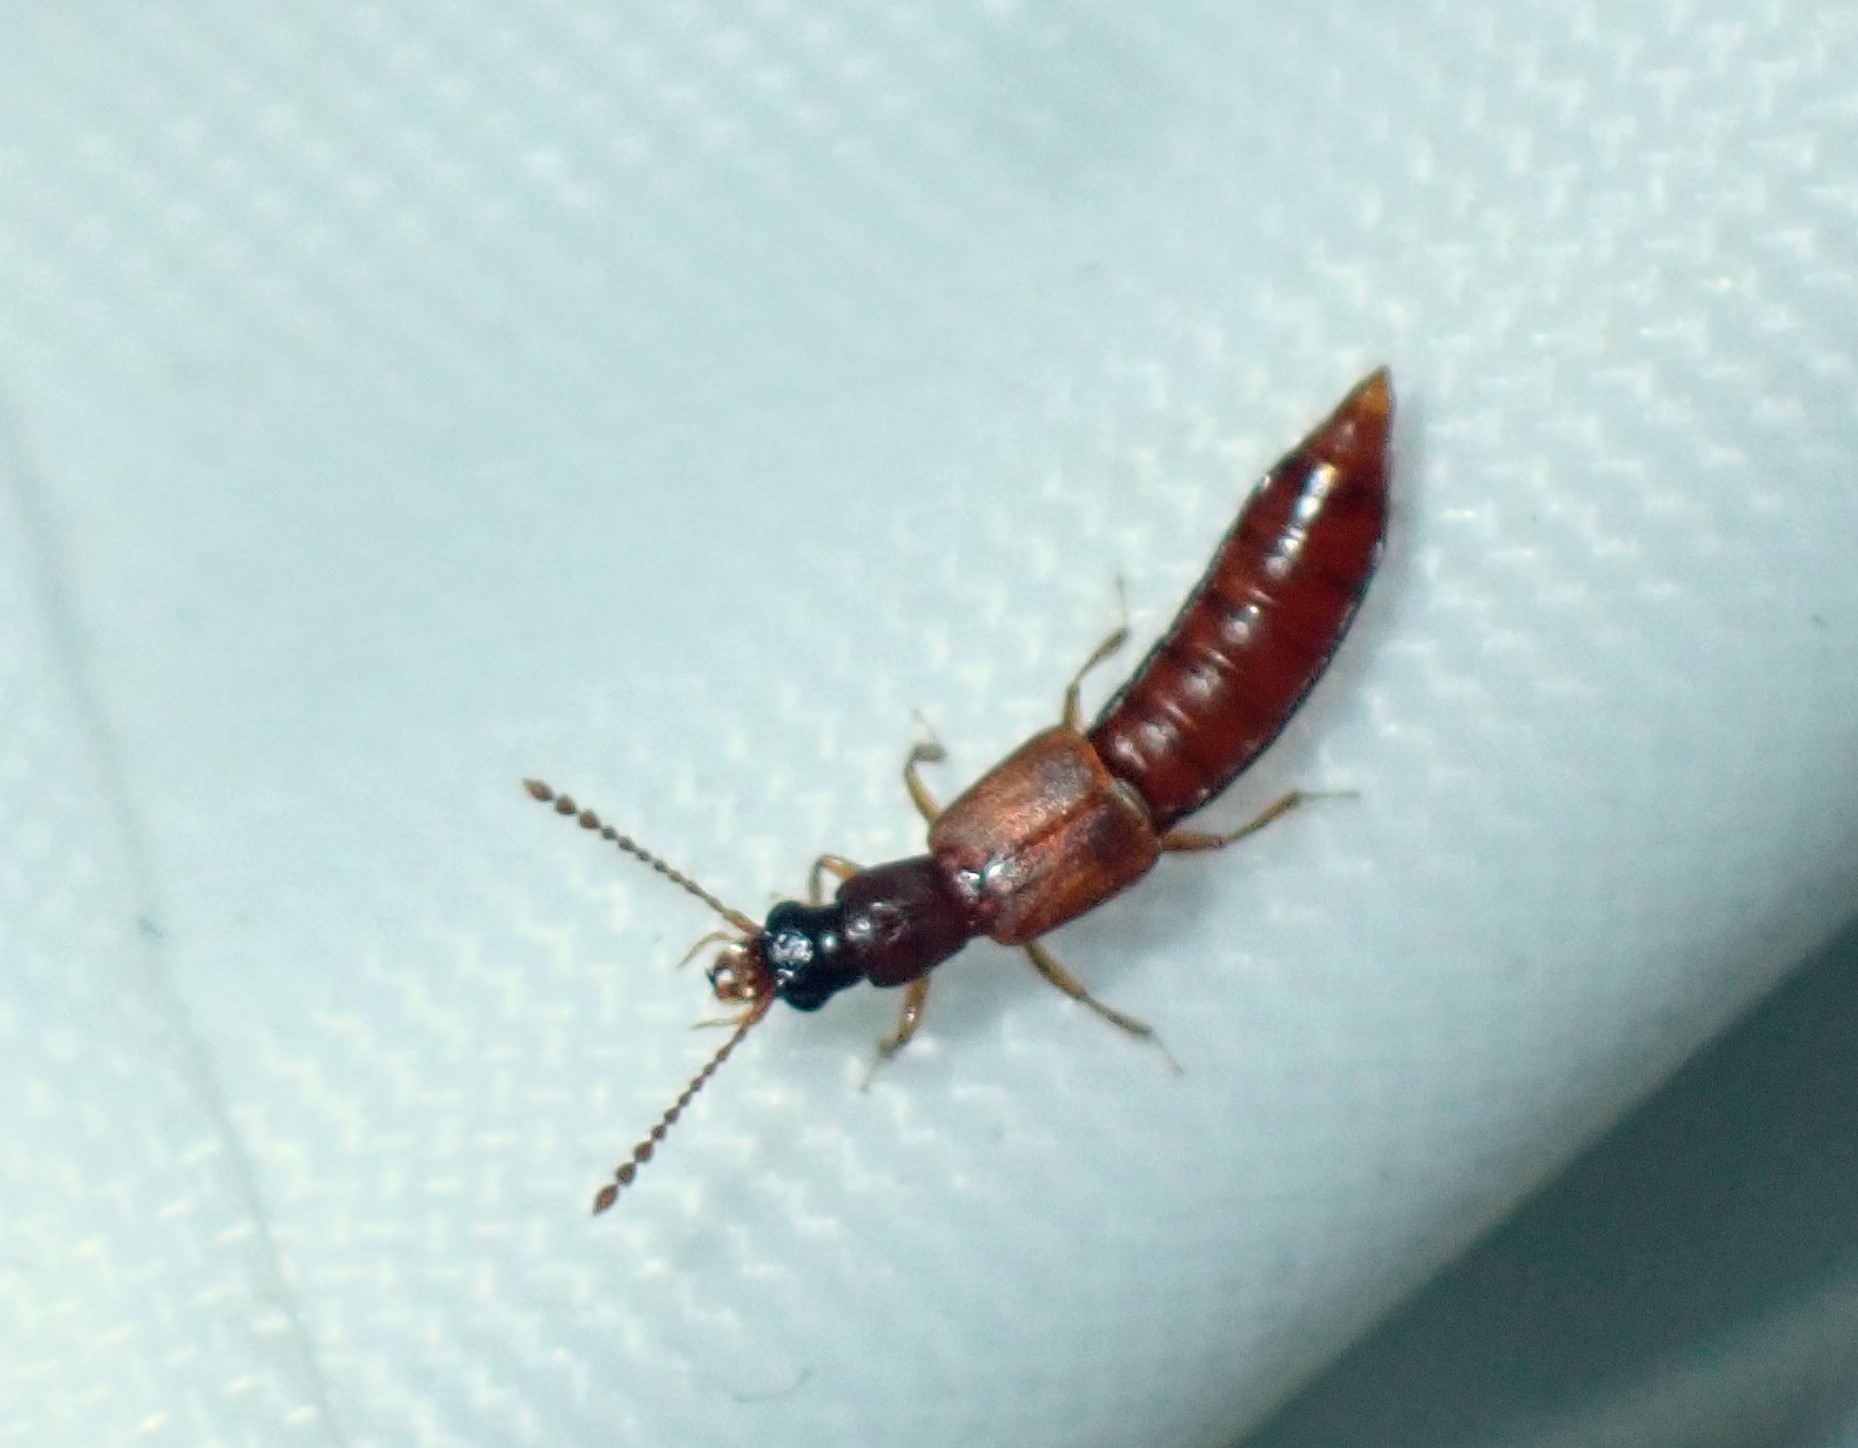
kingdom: Animalia
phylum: Arthropoda
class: Insecta
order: Coleoptera
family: Staphylinidae
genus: Manda
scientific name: Manda mandibularis
